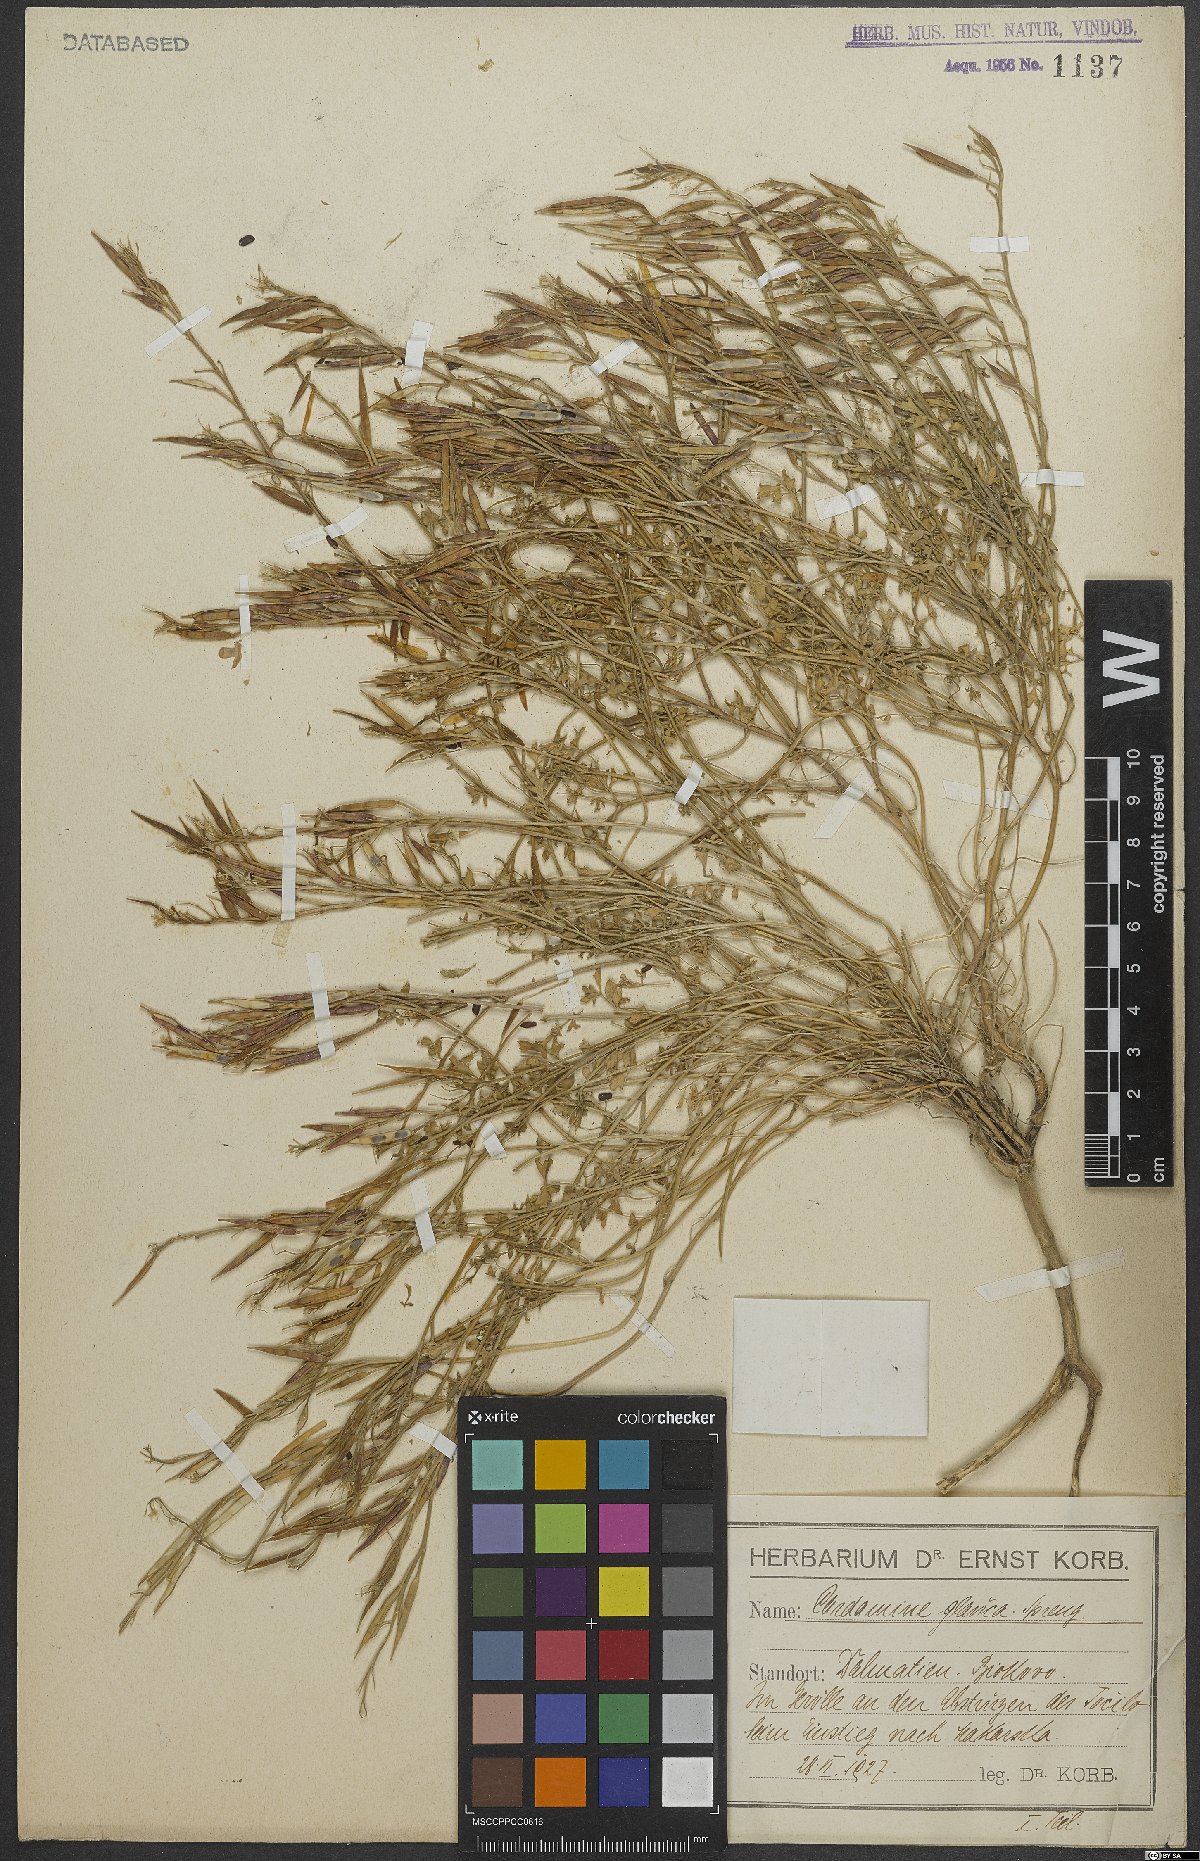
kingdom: Plantae
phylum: Tracheophyta
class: Magnoliopsida
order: Brassicales
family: Brassicaceae
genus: Cardamine
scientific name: Cardamine glauca
